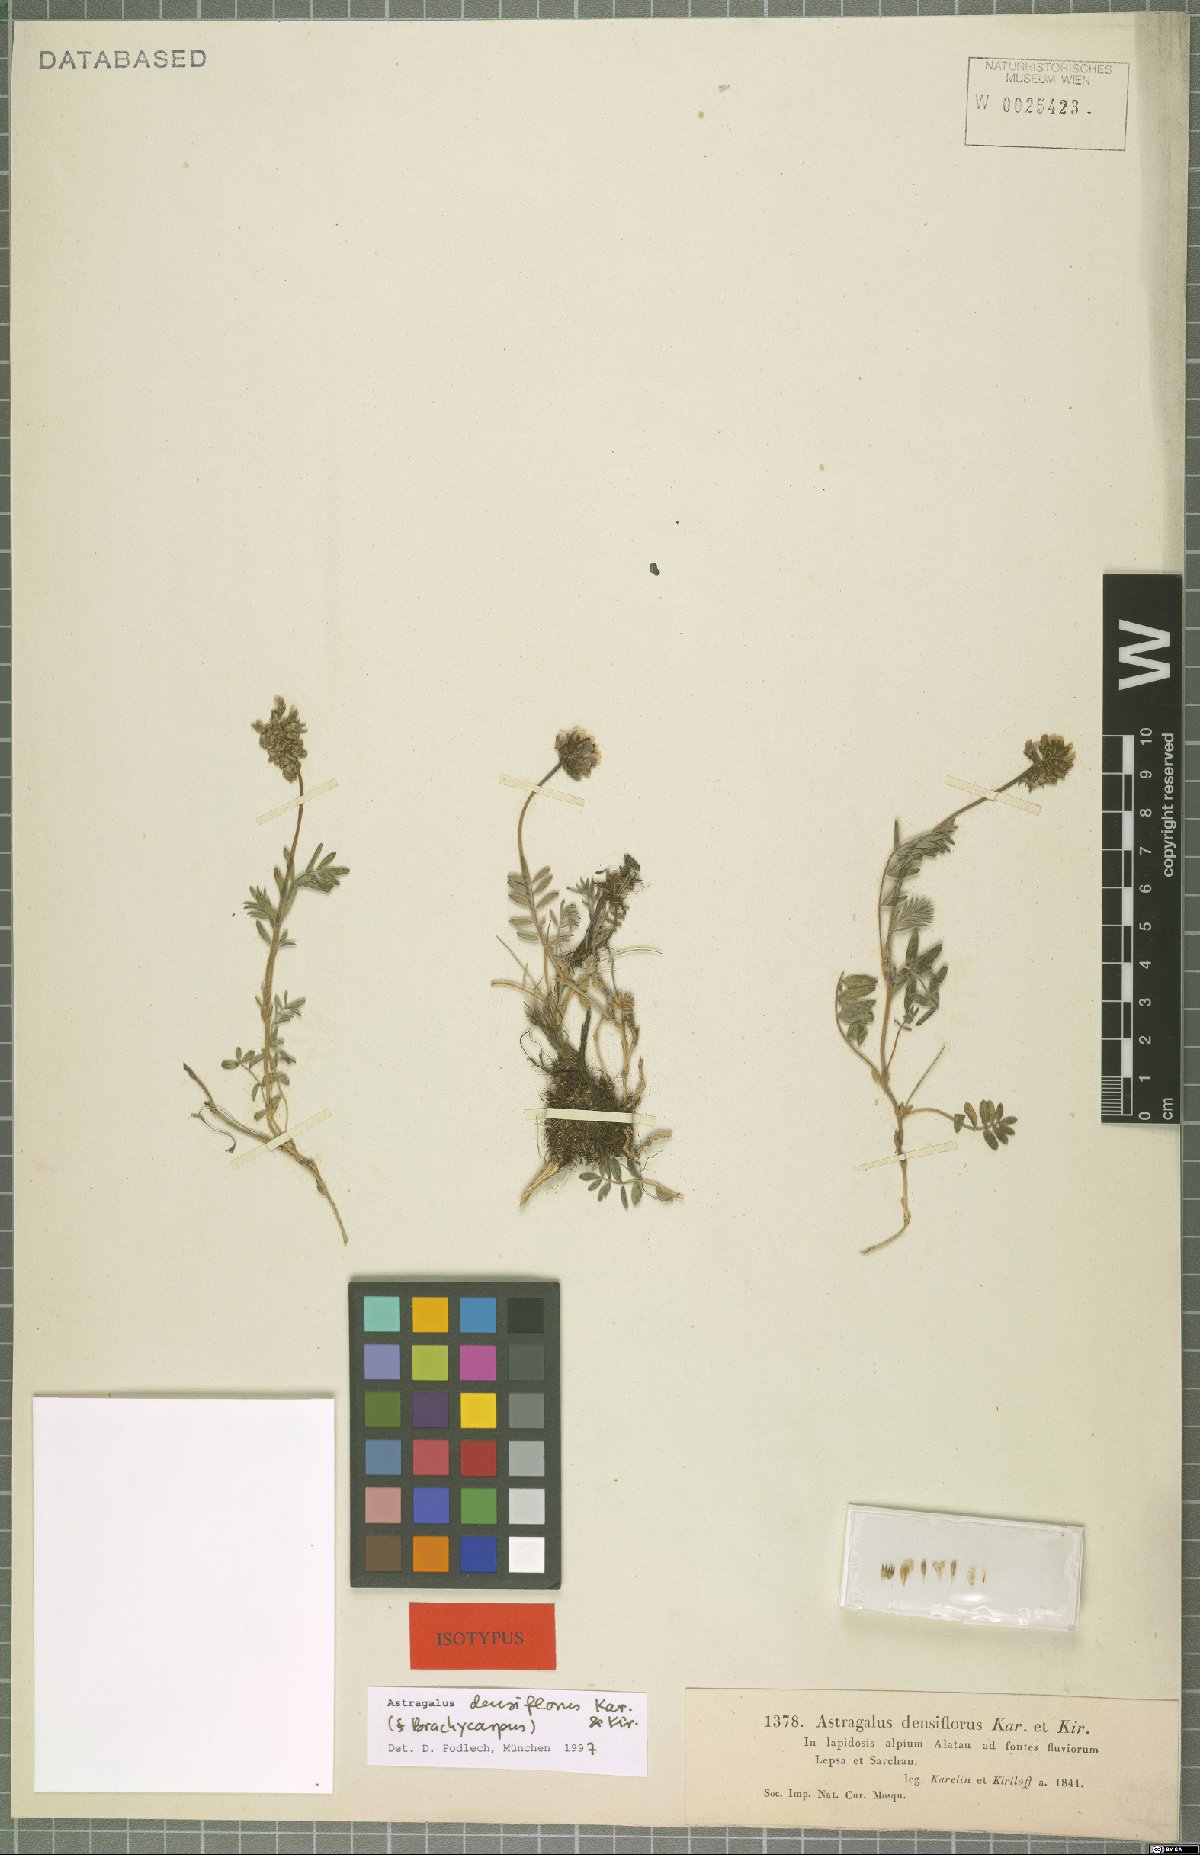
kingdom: Plantae
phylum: Tracheophyta
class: Magnoliopsida
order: Fabales
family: Fabaceae
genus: Astragalus
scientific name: Astragalus densiflorus
